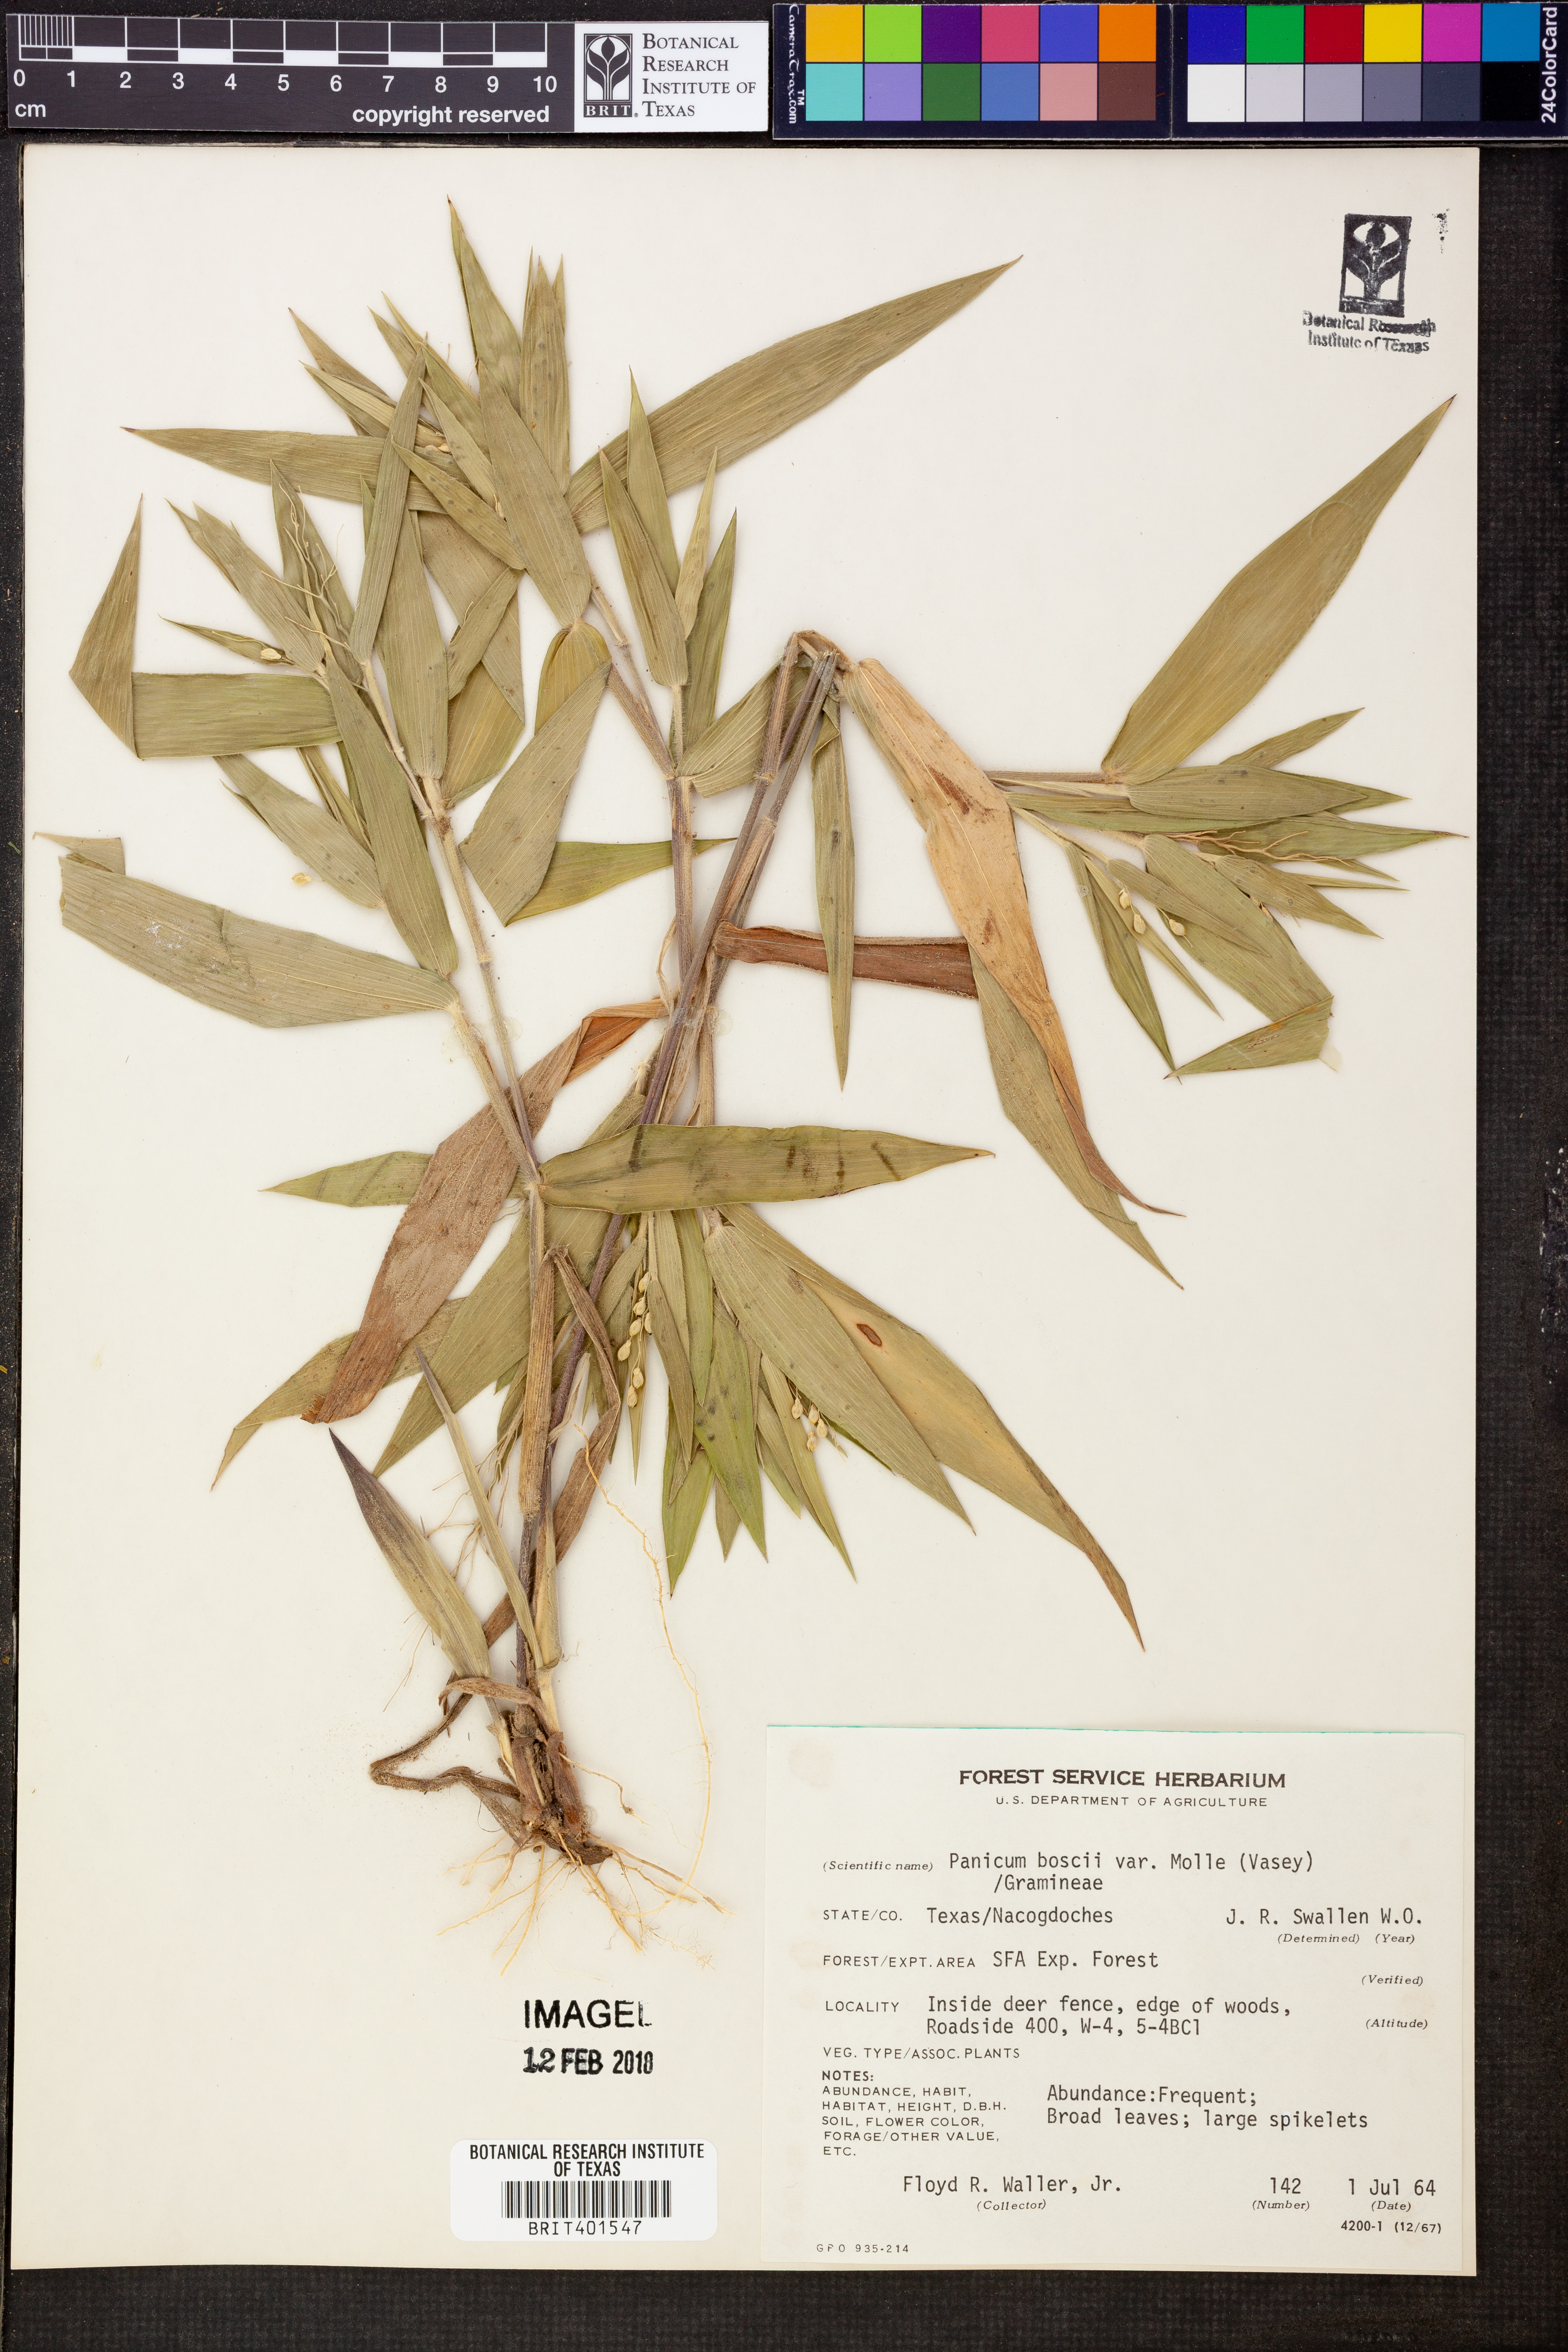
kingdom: Plantae
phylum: Tracheophyta
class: Liliopsida
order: Poales
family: Poaceae
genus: Dichanthelium
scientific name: Dichanthelium boscii
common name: Bosc's panic grass
